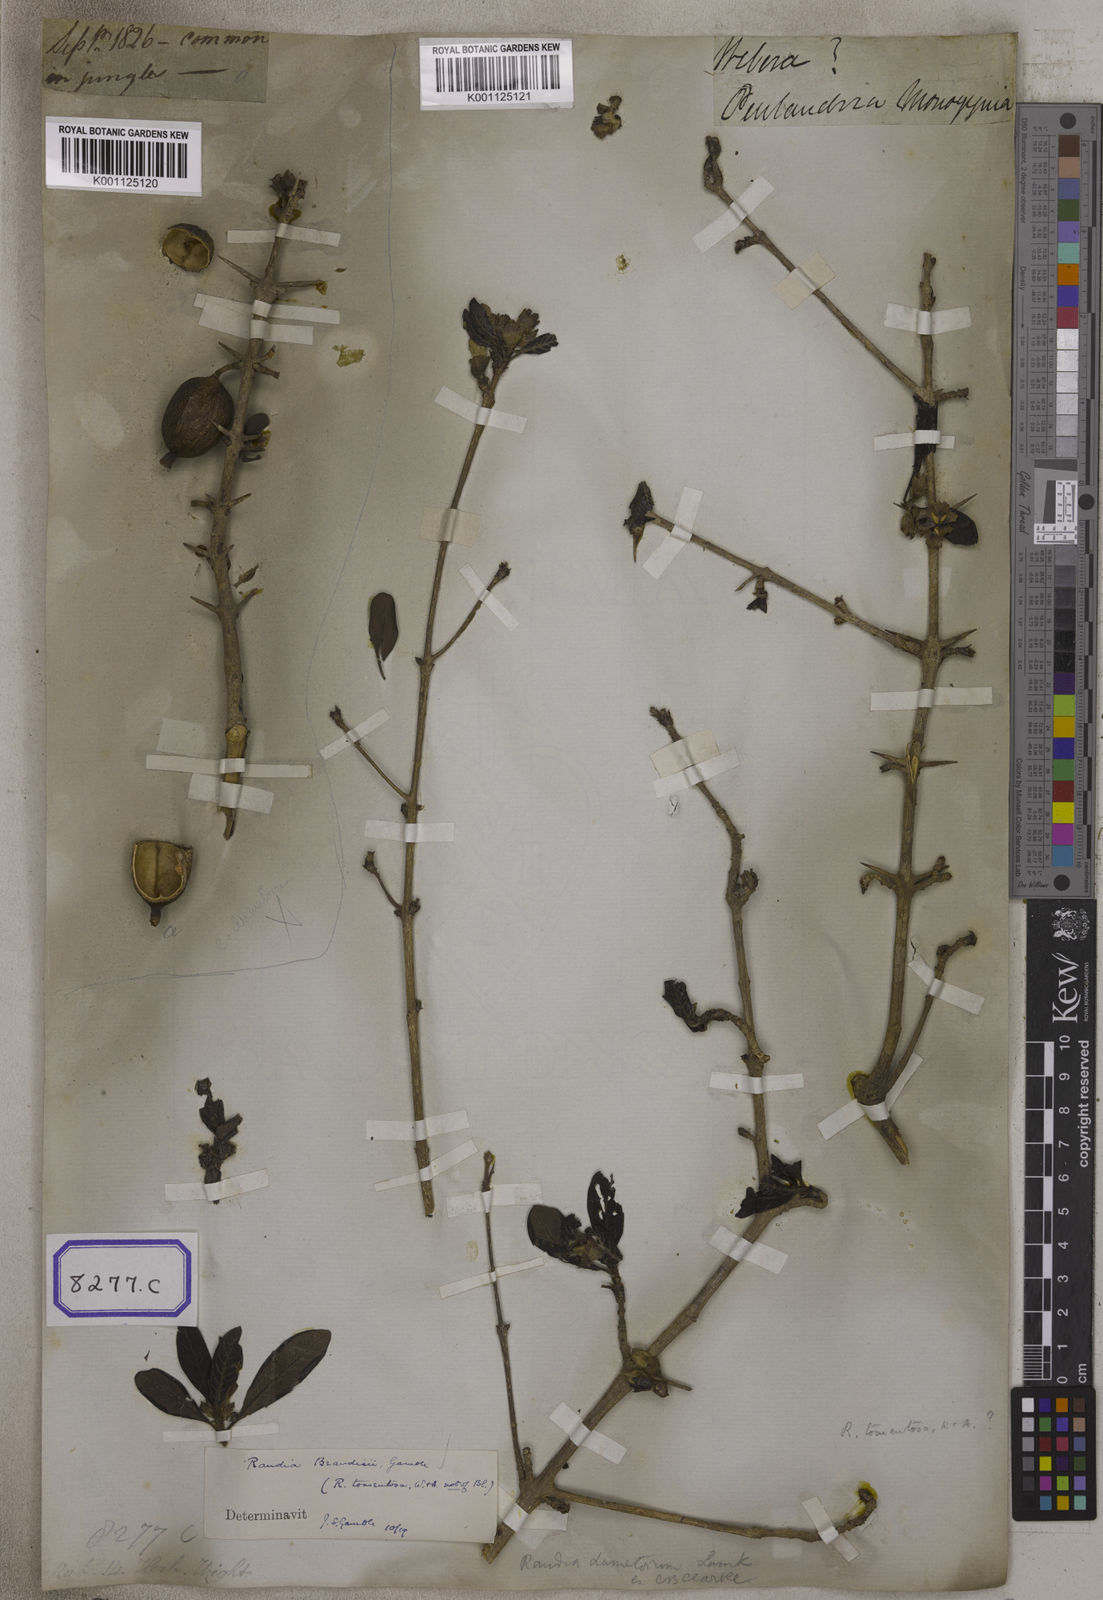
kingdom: Plantae
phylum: Tracheophyta
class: Magnoliopsida
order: Gentianales
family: Rubiaceae
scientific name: Rubiaceae
